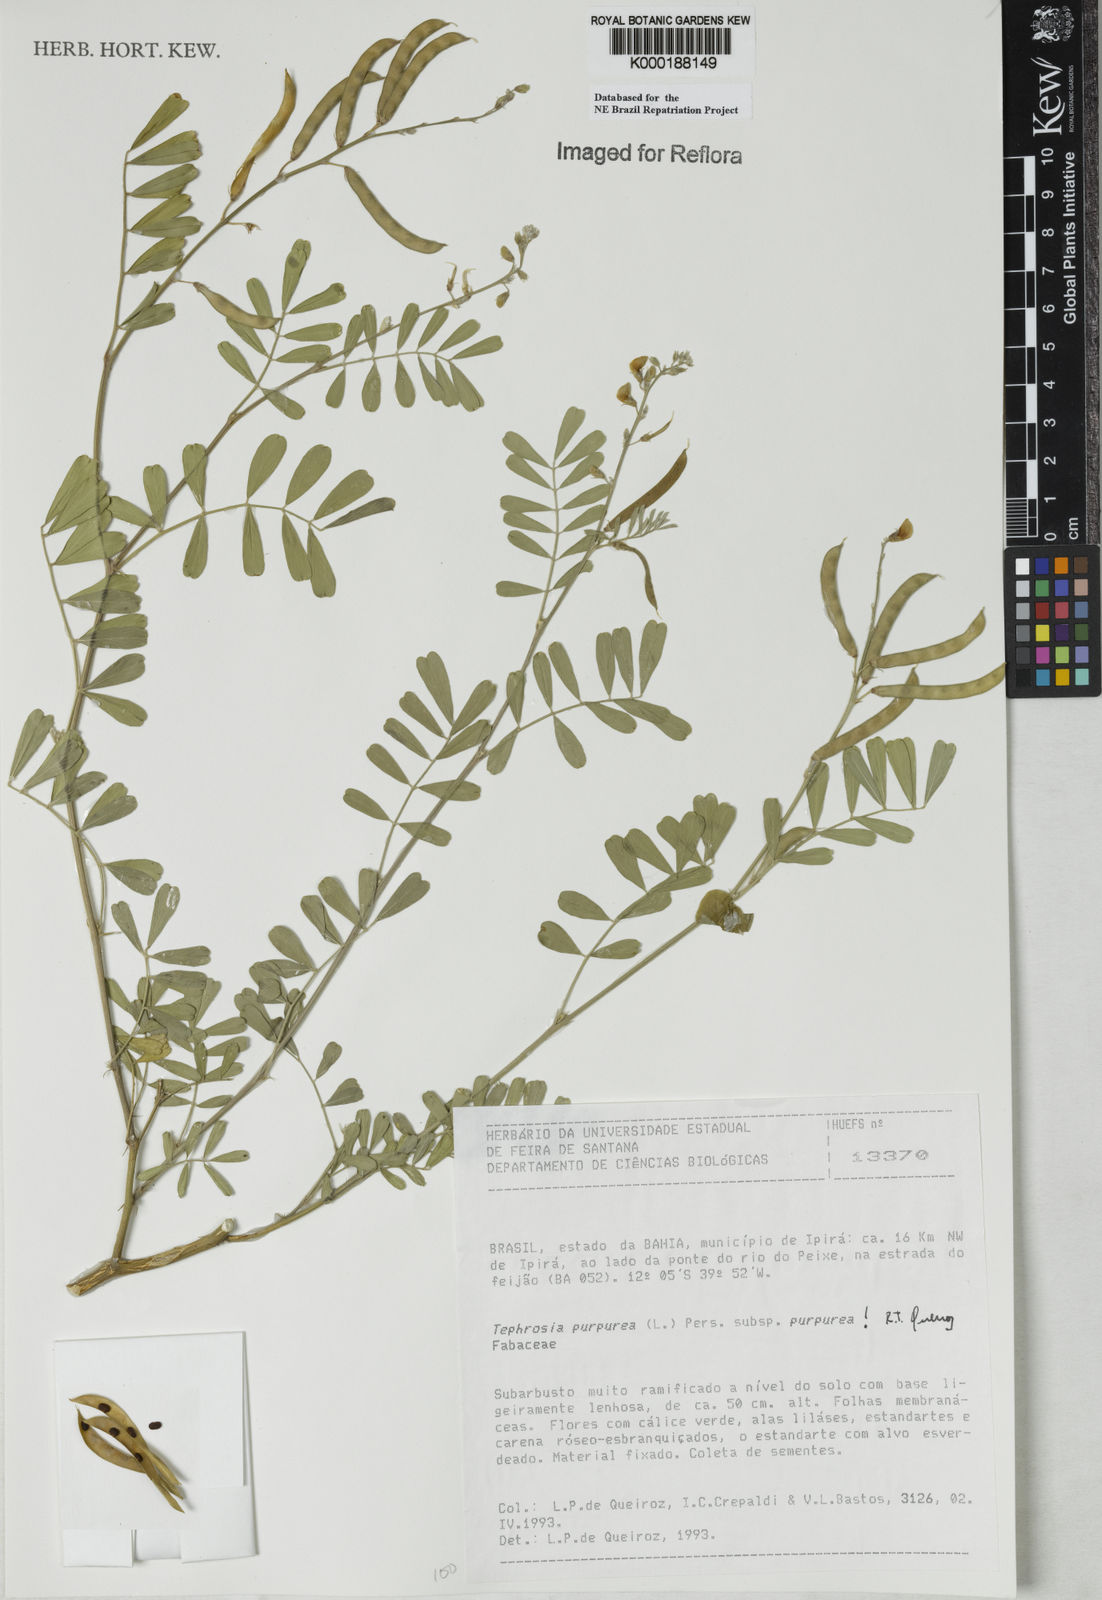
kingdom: Plantae
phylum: Tracheophyta
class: Magnoliopsida
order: Fabales
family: Fabaceae
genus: Tephrosia
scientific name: Tephrosia purpurea
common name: Fishpoison
